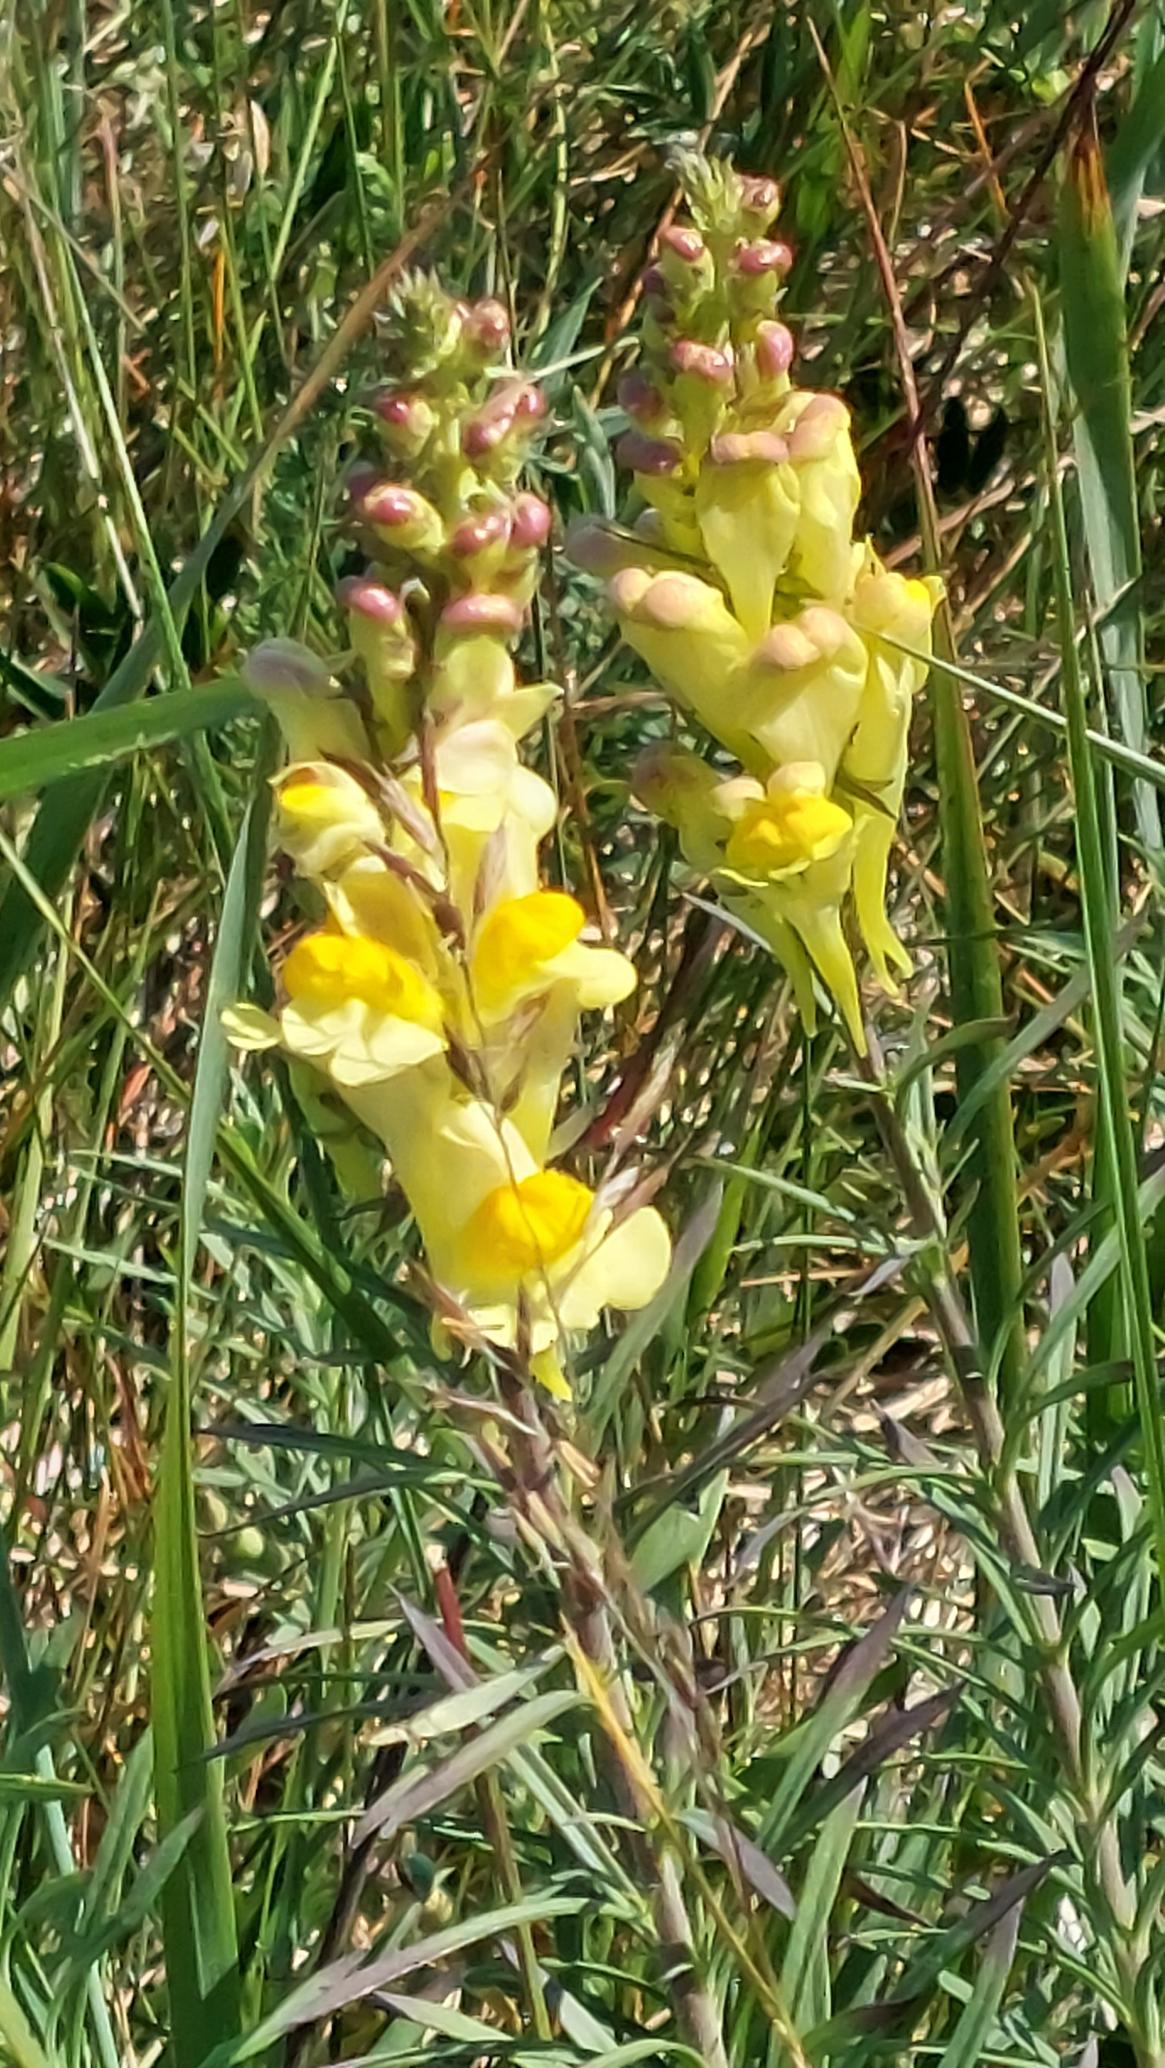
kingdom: Plantae
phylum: Tracheophyta
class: Magnoliopsida
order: Lamiales
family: Plantaginaceae
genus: Linaria
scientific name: Linaria vulgaris
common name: Almindelig torskemund
